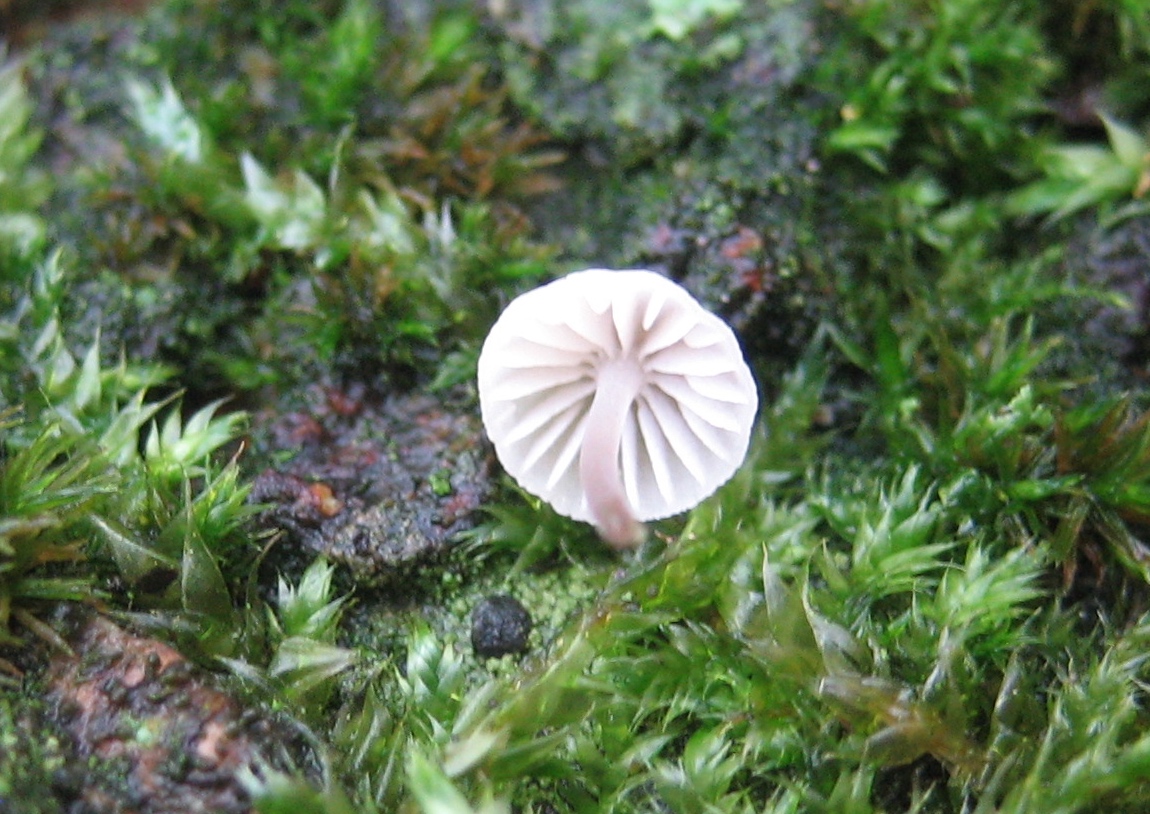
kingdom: Fungi
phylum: Basidiomycota
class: Agaricomycetes
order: Agaricales
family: Mycenaceae
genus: Mycena
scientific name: Mycena
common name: huesvamp
